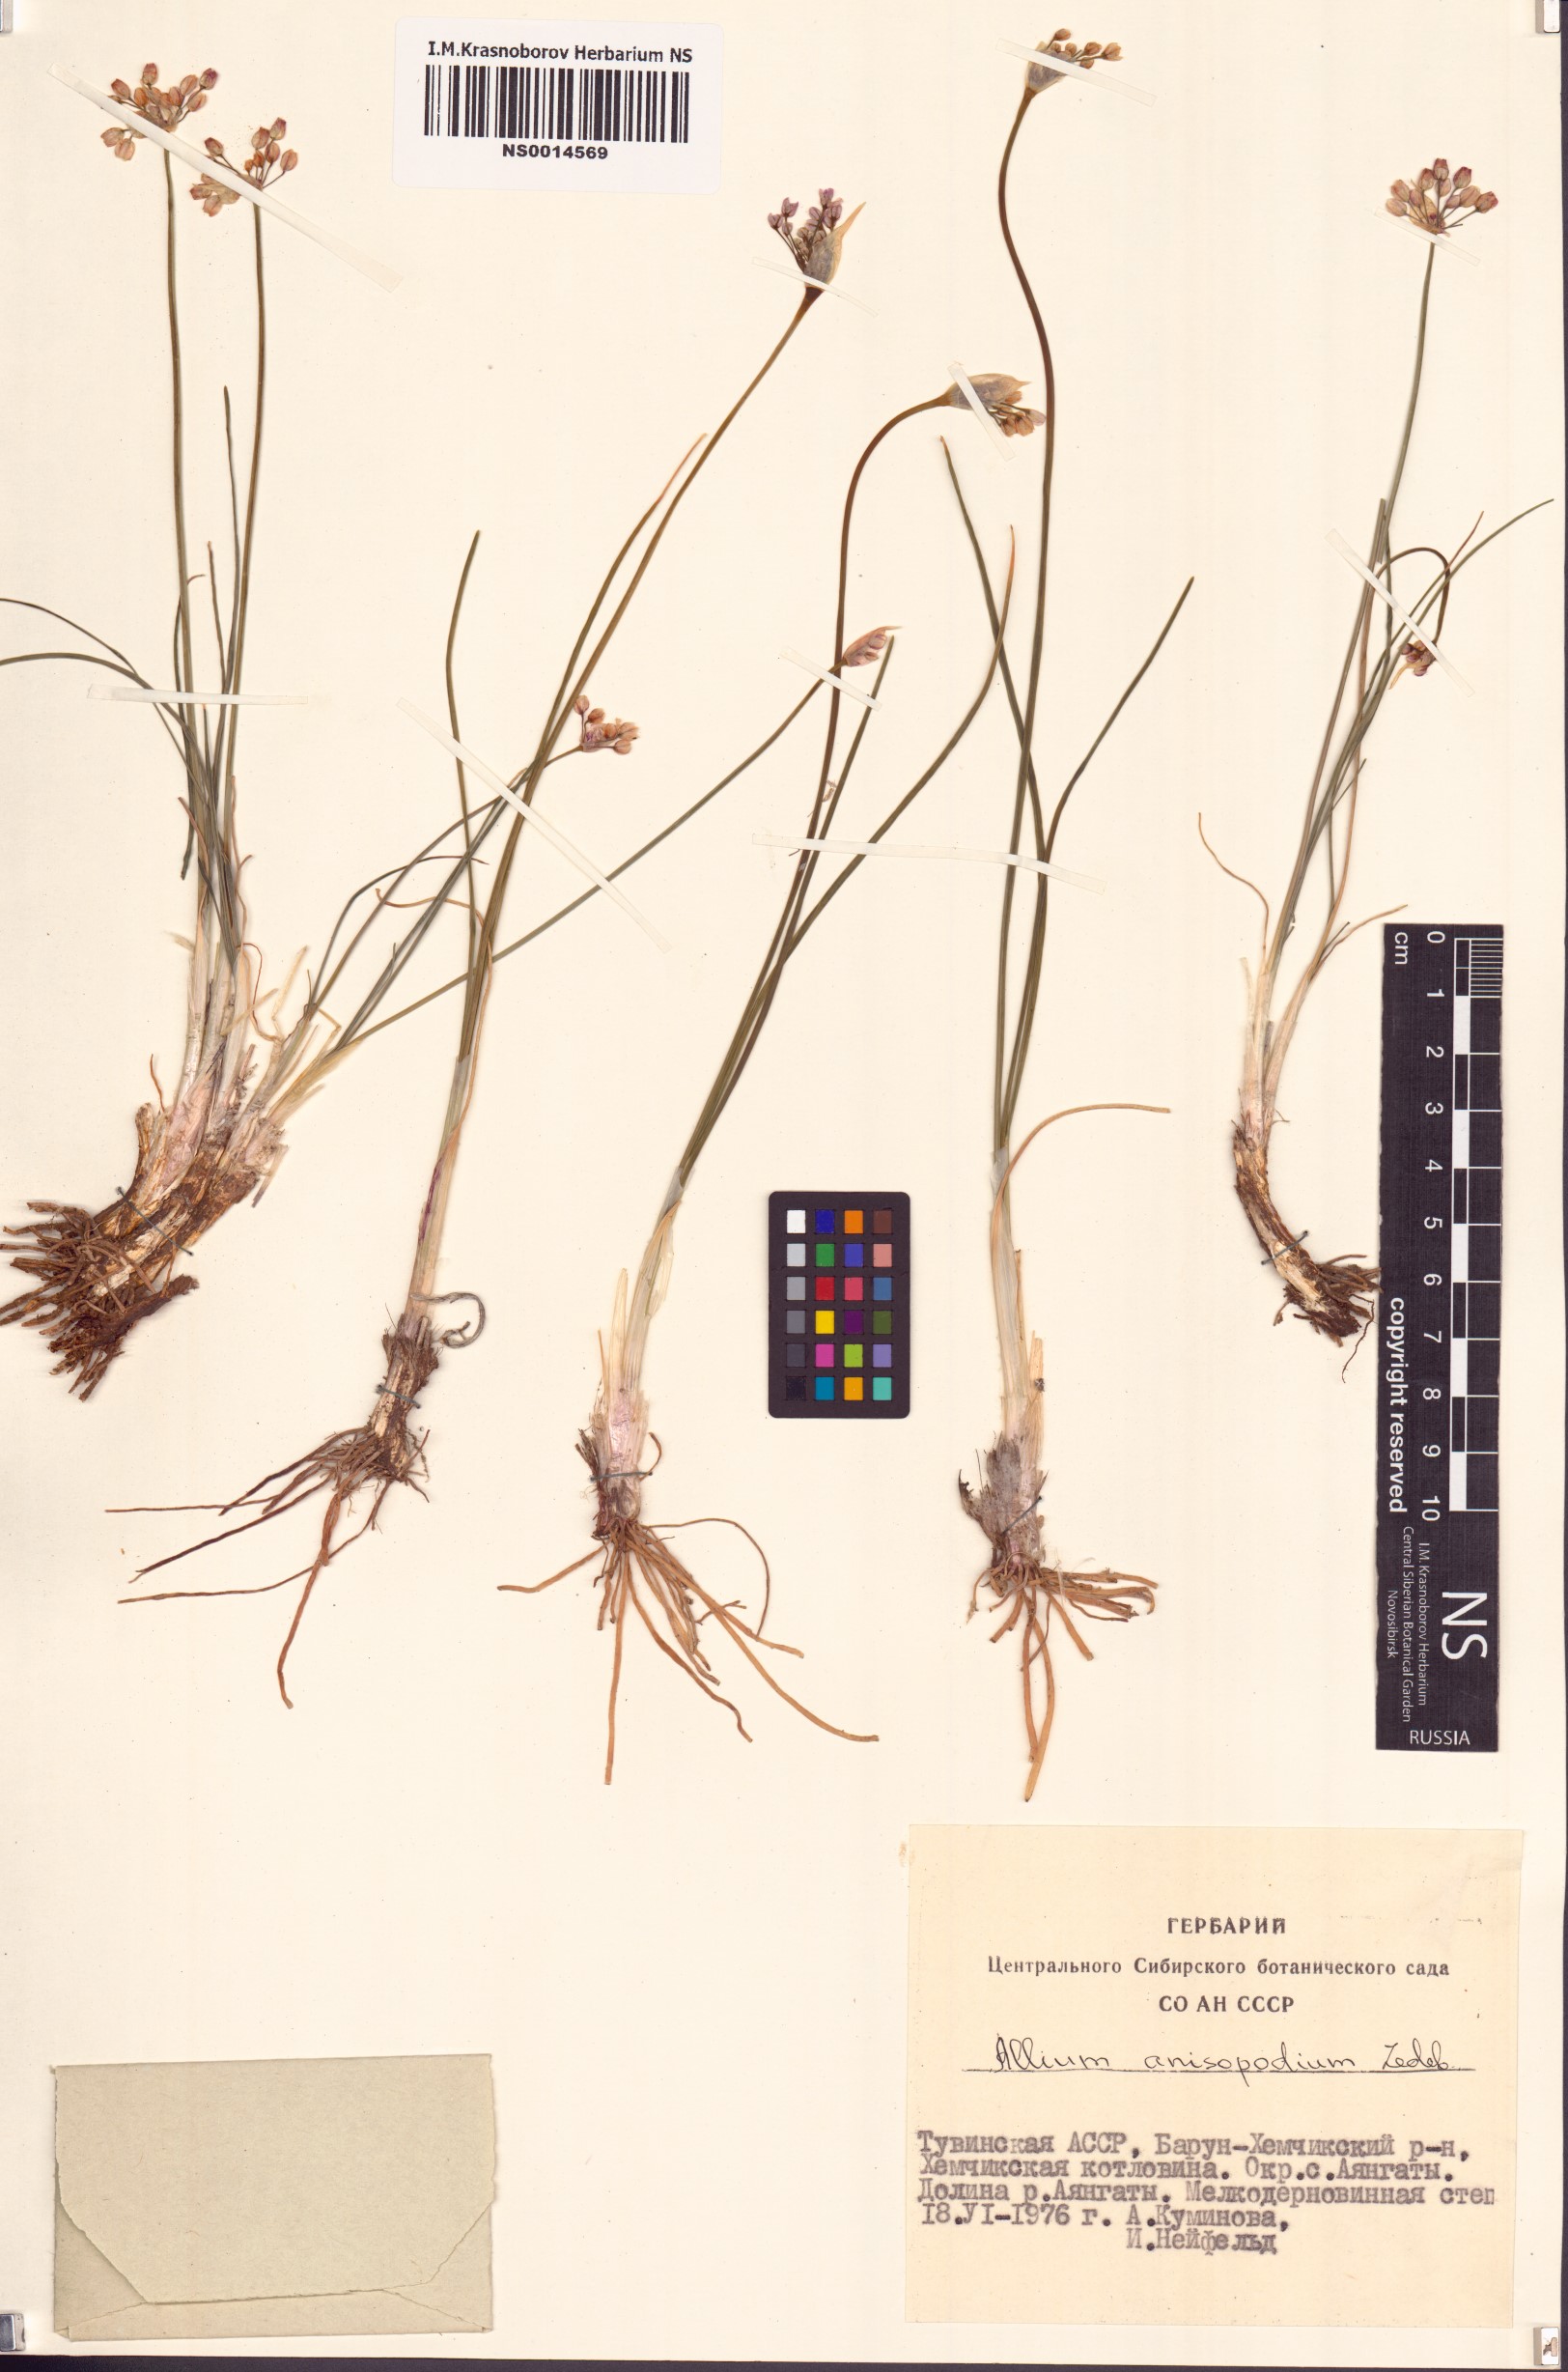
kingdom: Plantae
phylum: Tracheophyta
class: Liliopsida
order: Asparagales
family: Amaryllidaceae
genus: Allium
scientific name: Allium anisopodium
